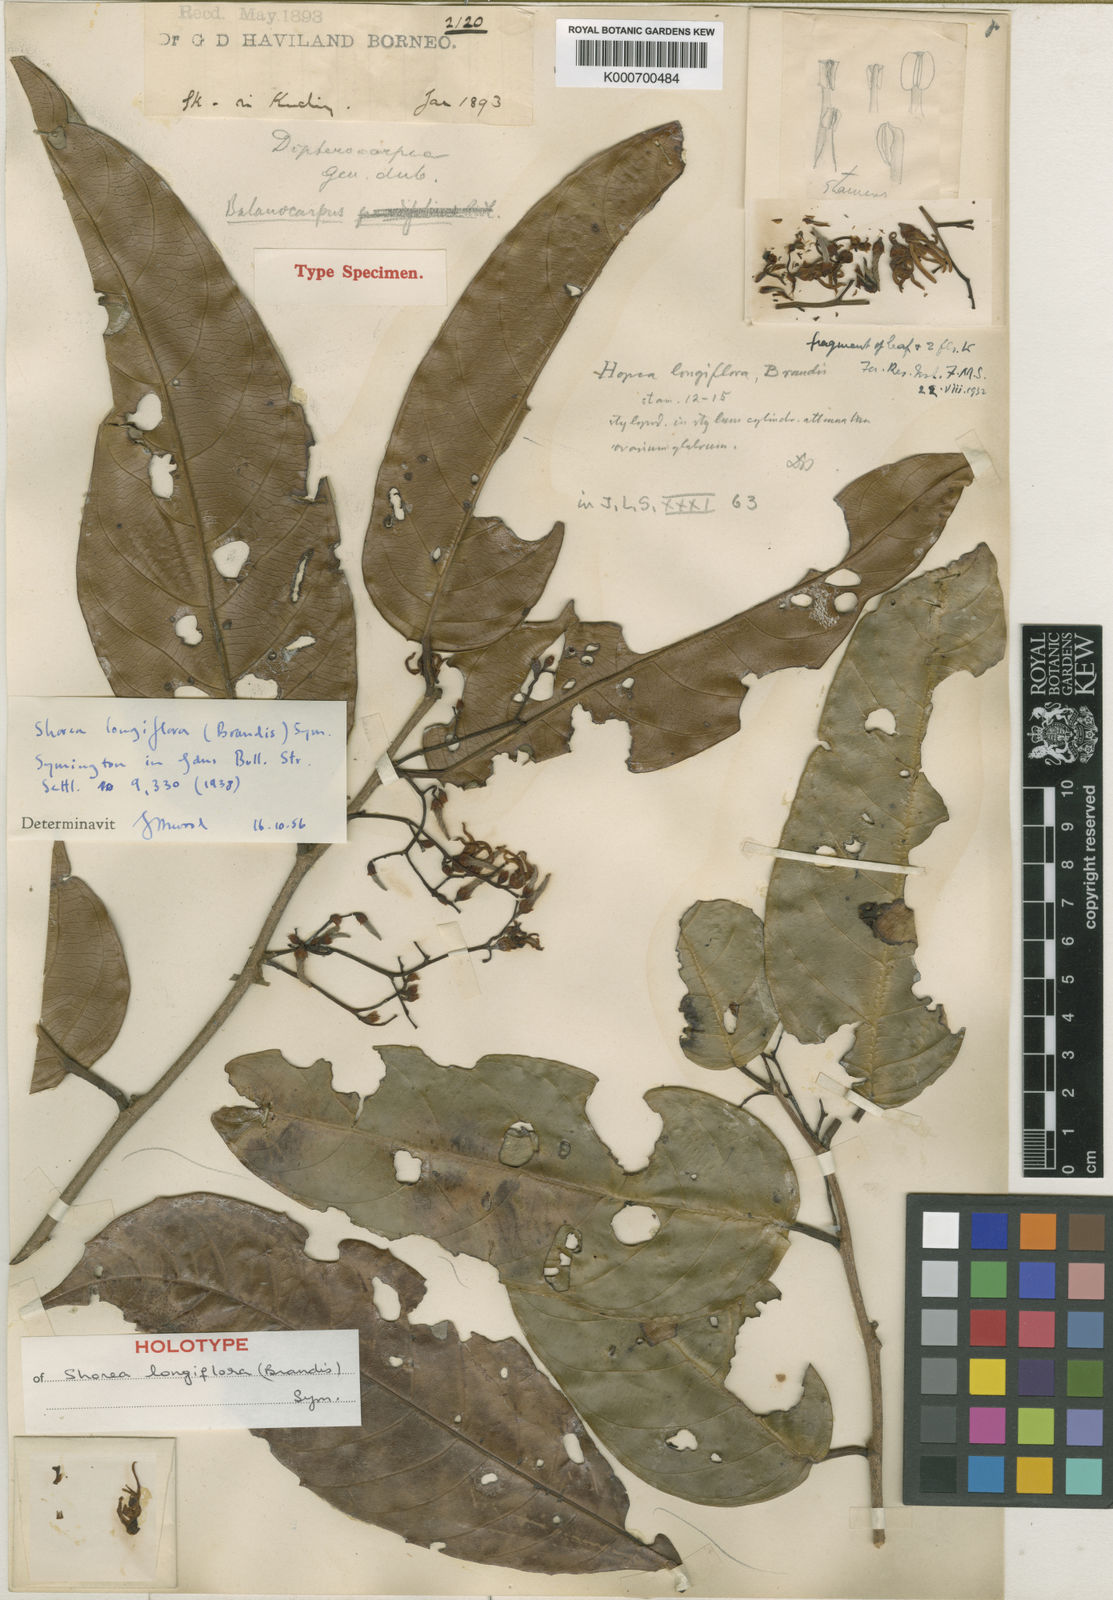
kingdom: Plantae
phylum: Tracheophyta
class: Magnoliopsida
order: Malvales
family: Dipterocarpaceae
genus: Shorea
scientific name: Shorea longiflora
